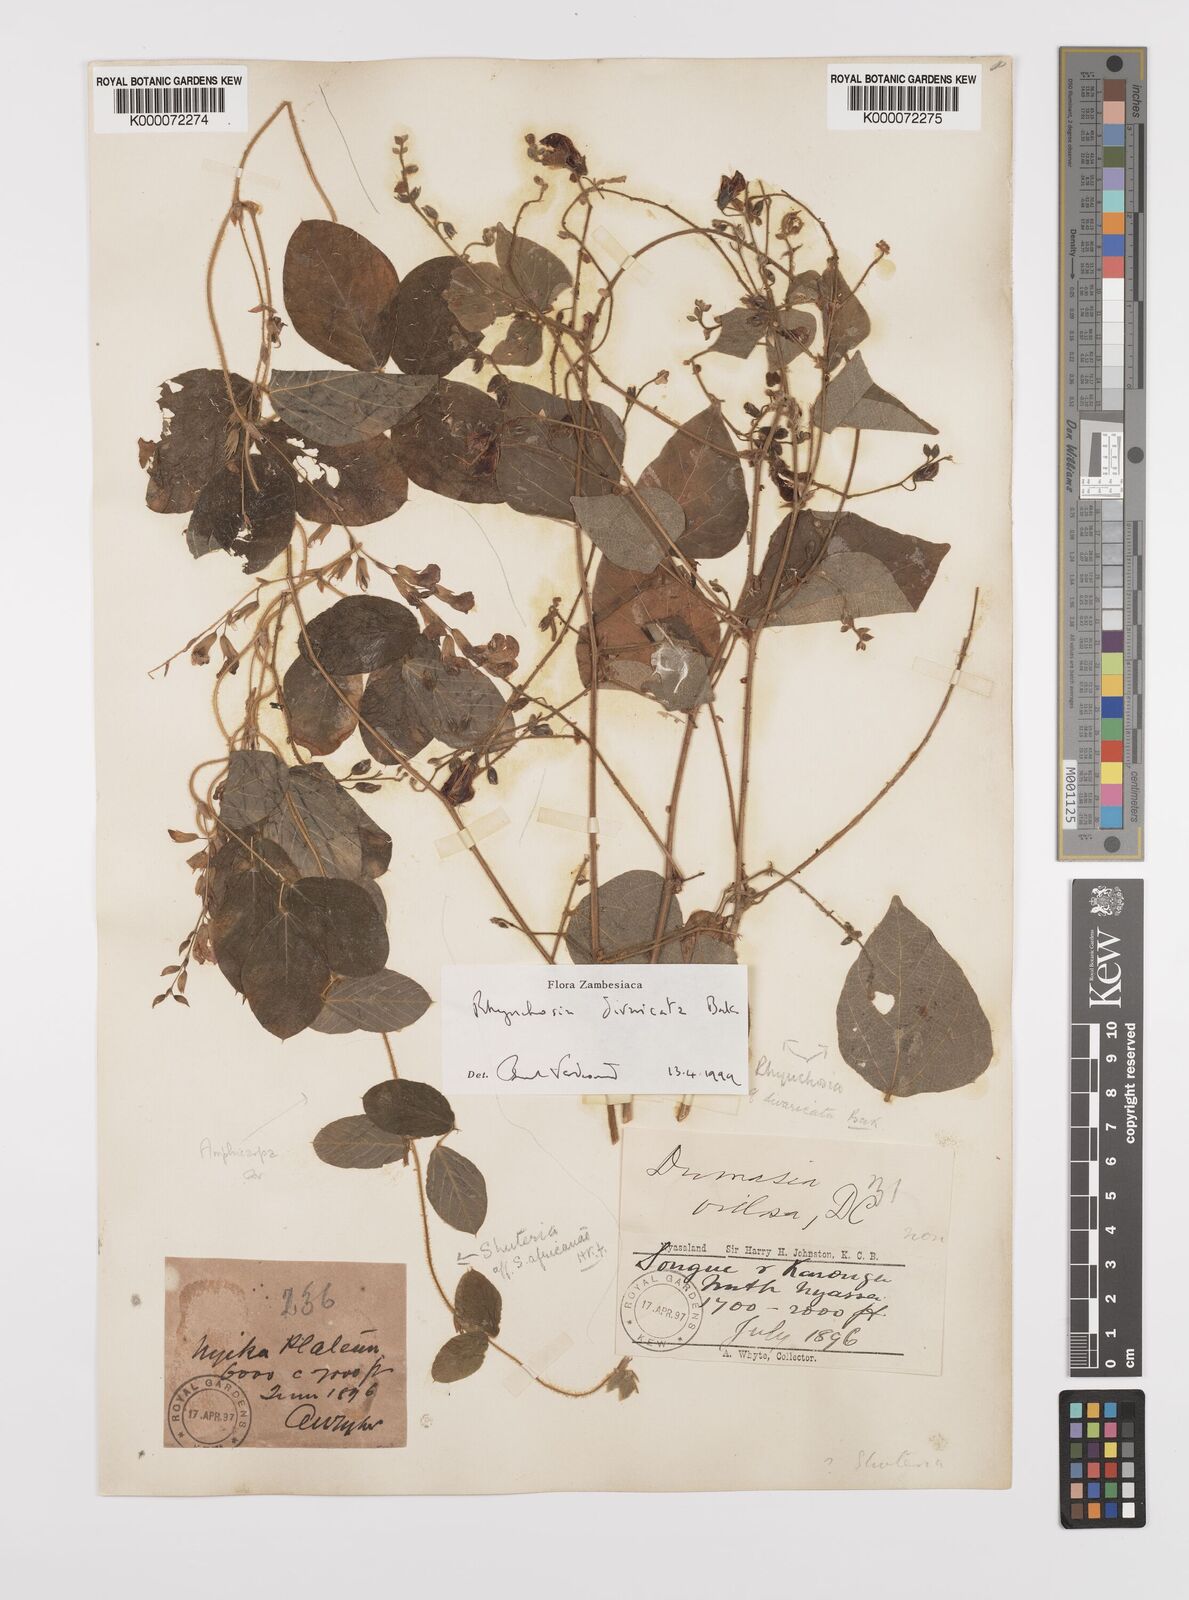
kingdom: Plantae
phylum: Tracheophyta
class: Magnoliopsida
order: Fabales
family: Fabaceae
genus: Amphicarpaea
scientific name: Amphicarpaea
